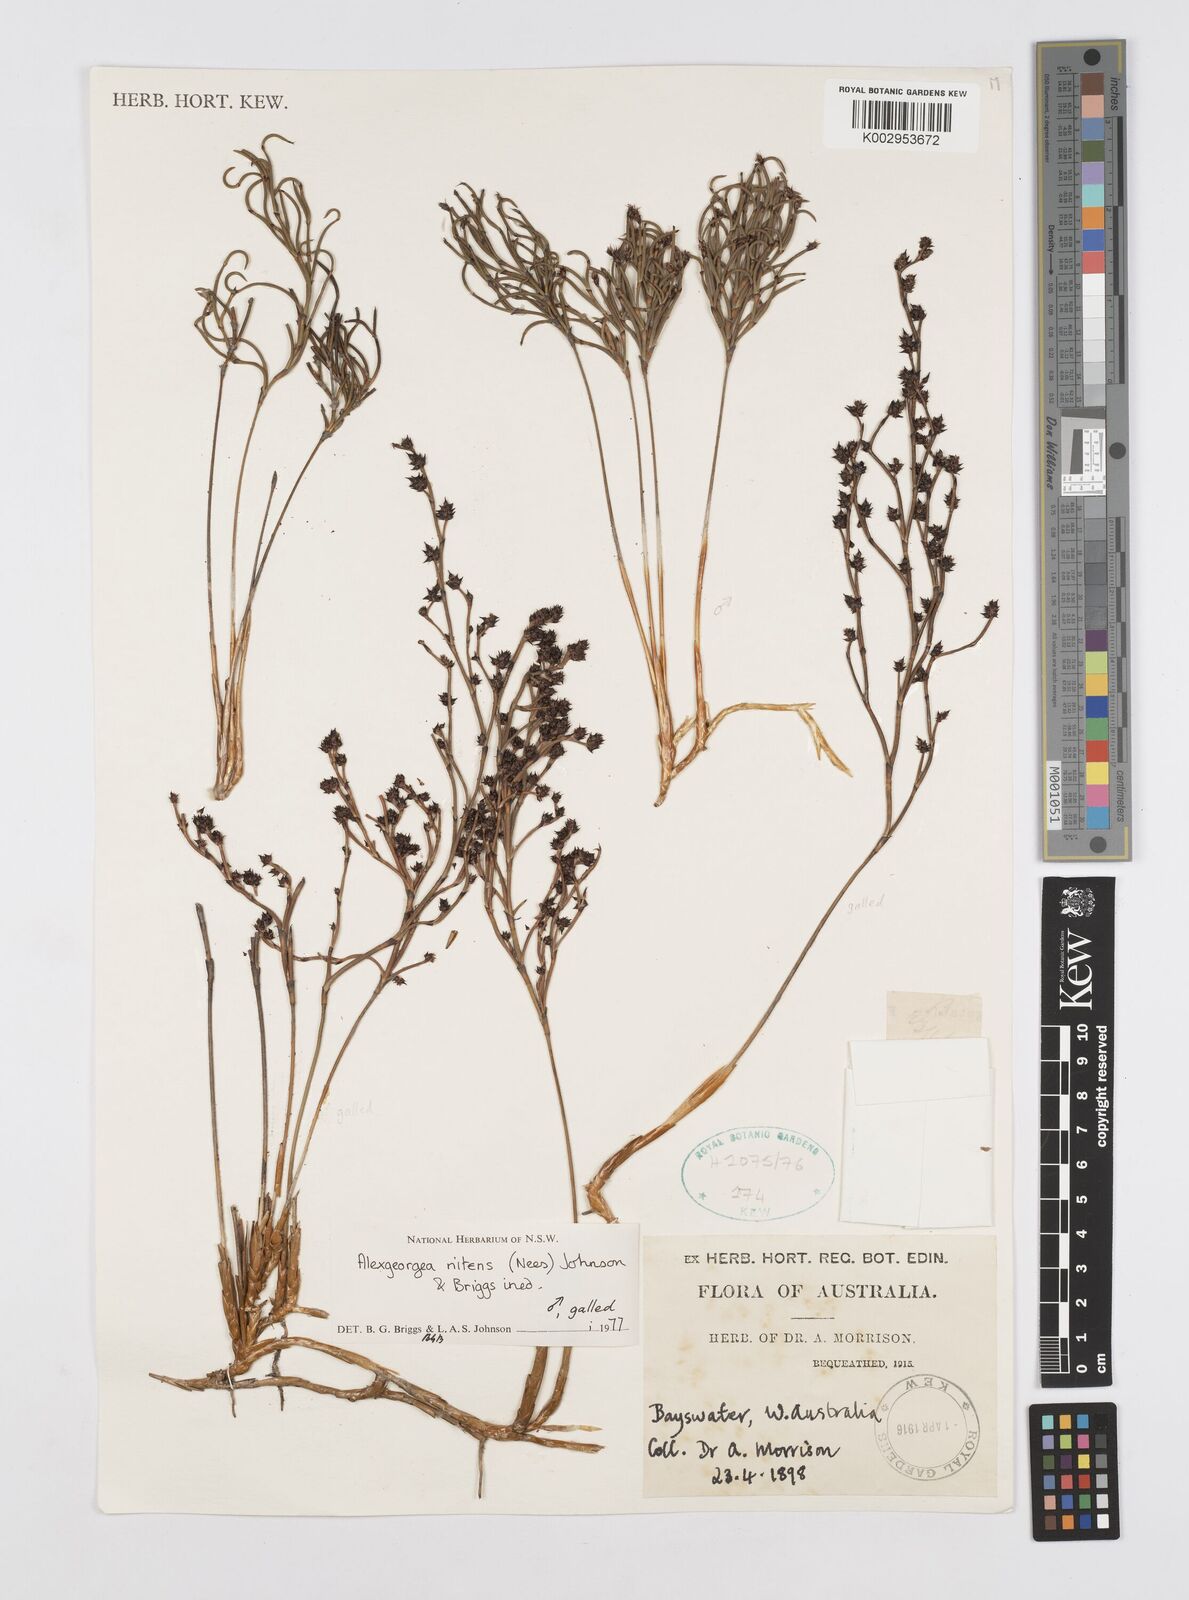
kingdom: Plantae
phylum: Tracheophyta
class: Liliopsida
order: Poales
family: Restionaceae
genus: Alexgeorgea
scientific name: Alexgeorgea nitens
